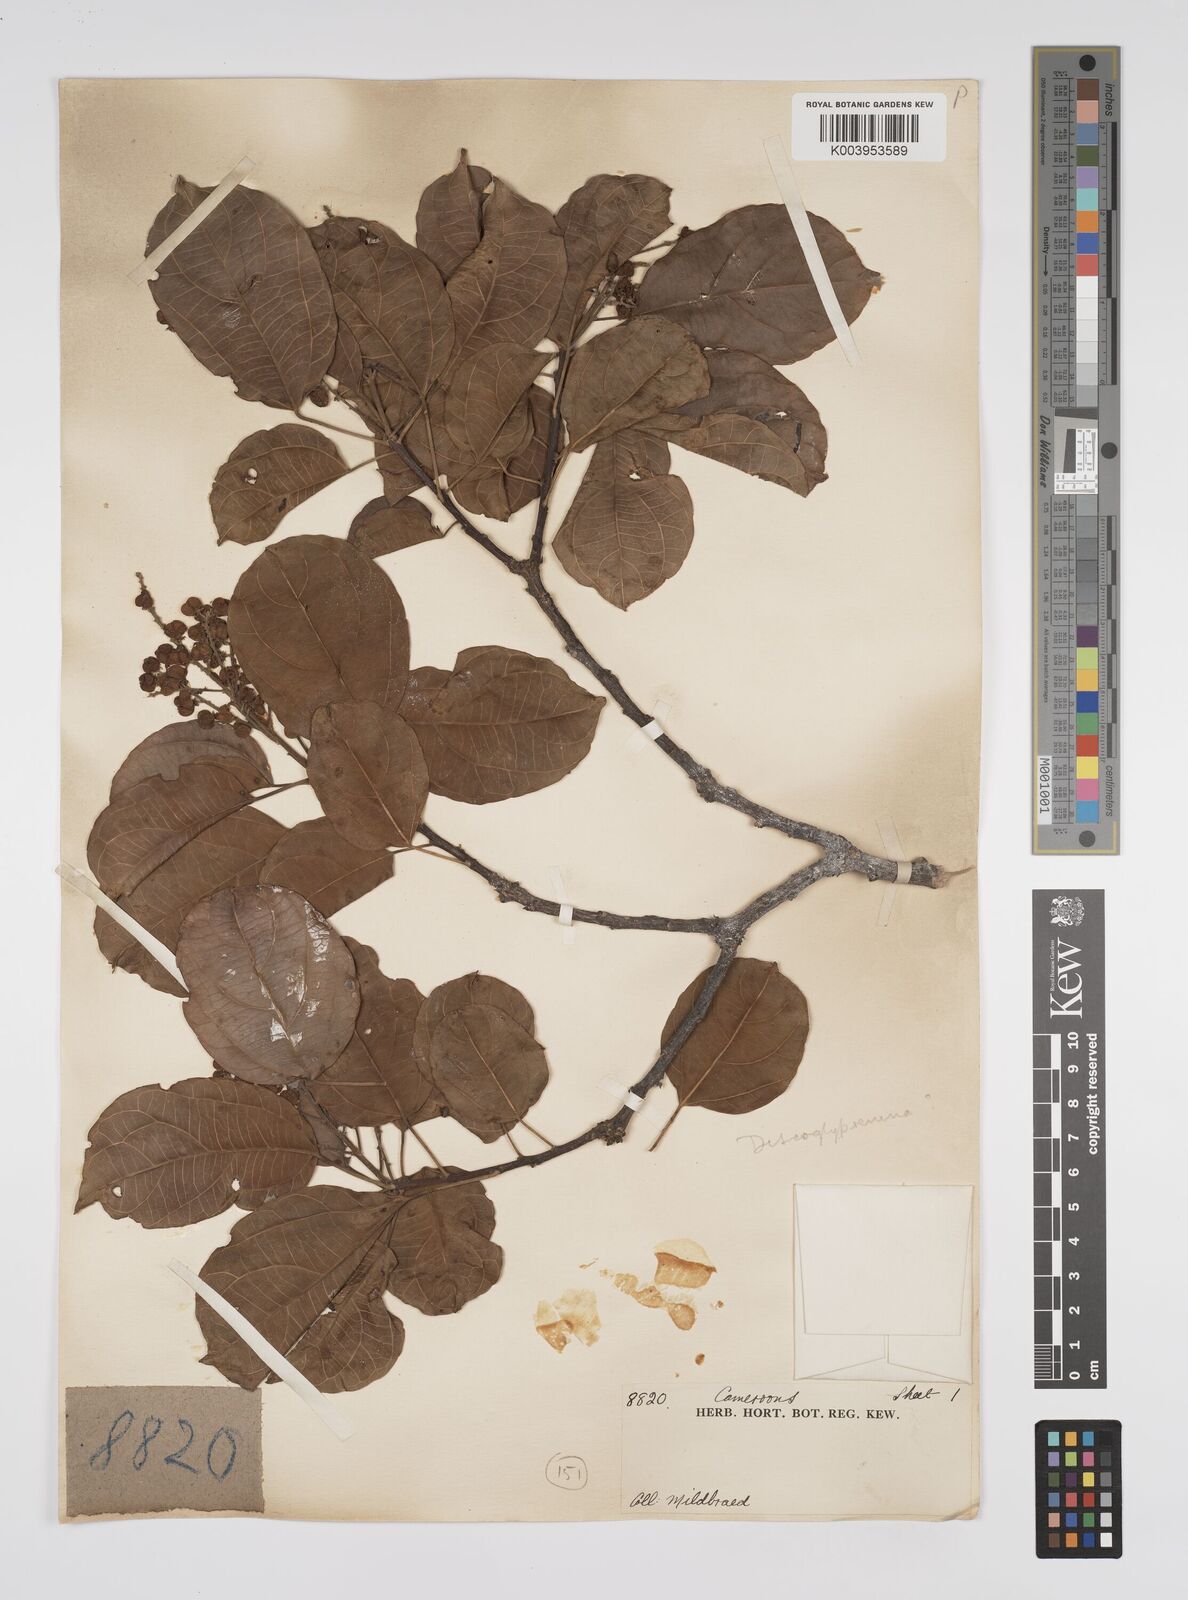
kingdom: Plantae
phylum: Tracheophyta
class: Magnoliopsida
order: Malpighiales
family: Euphorbiaceae
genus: Discoglypremna
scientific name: Discoglypremna caloneura
